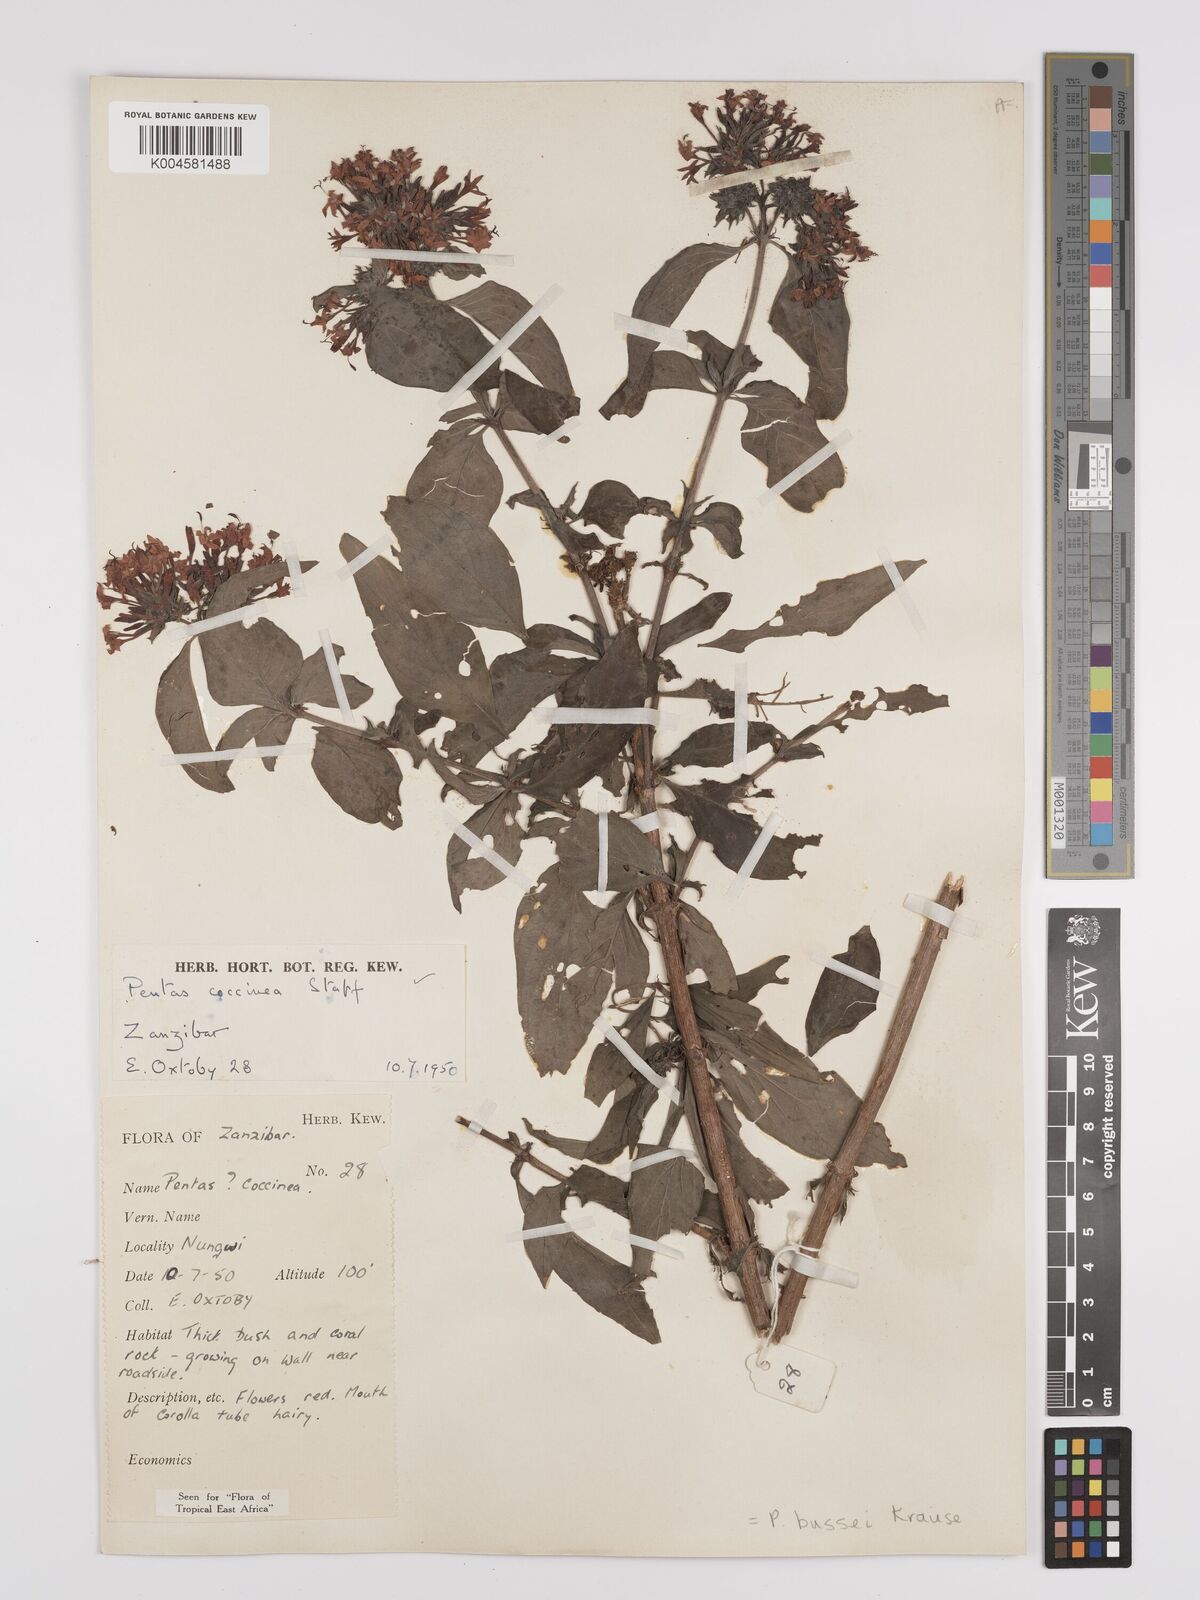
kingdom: Plantae
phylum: Tracheophyta
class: Magnoliopsida
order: Gentianales
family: Rubiaceae
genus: Rhodopentas
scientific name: Rhodopentas bussei
